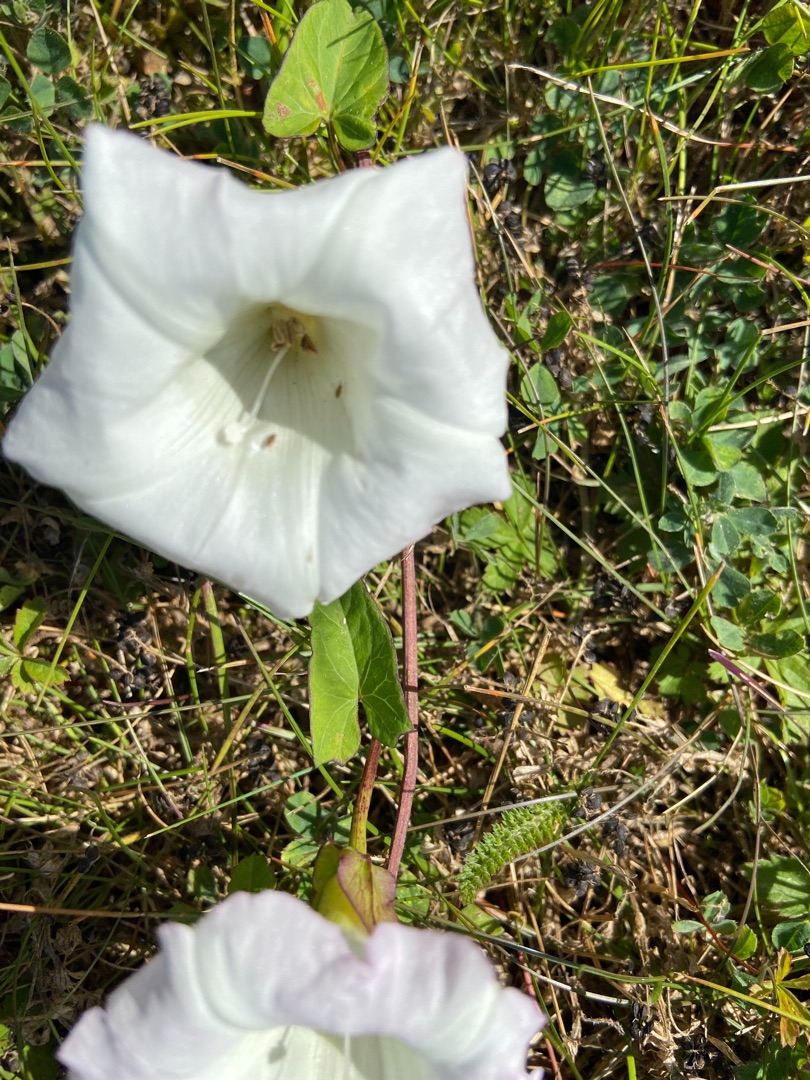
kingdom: Plantae
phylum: Tracheophyta
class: Magnoliopsida
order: Solanales
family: Convolvulaceae
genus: Calystegia
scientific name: Calystegia sepium
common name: Gærde-snerle
